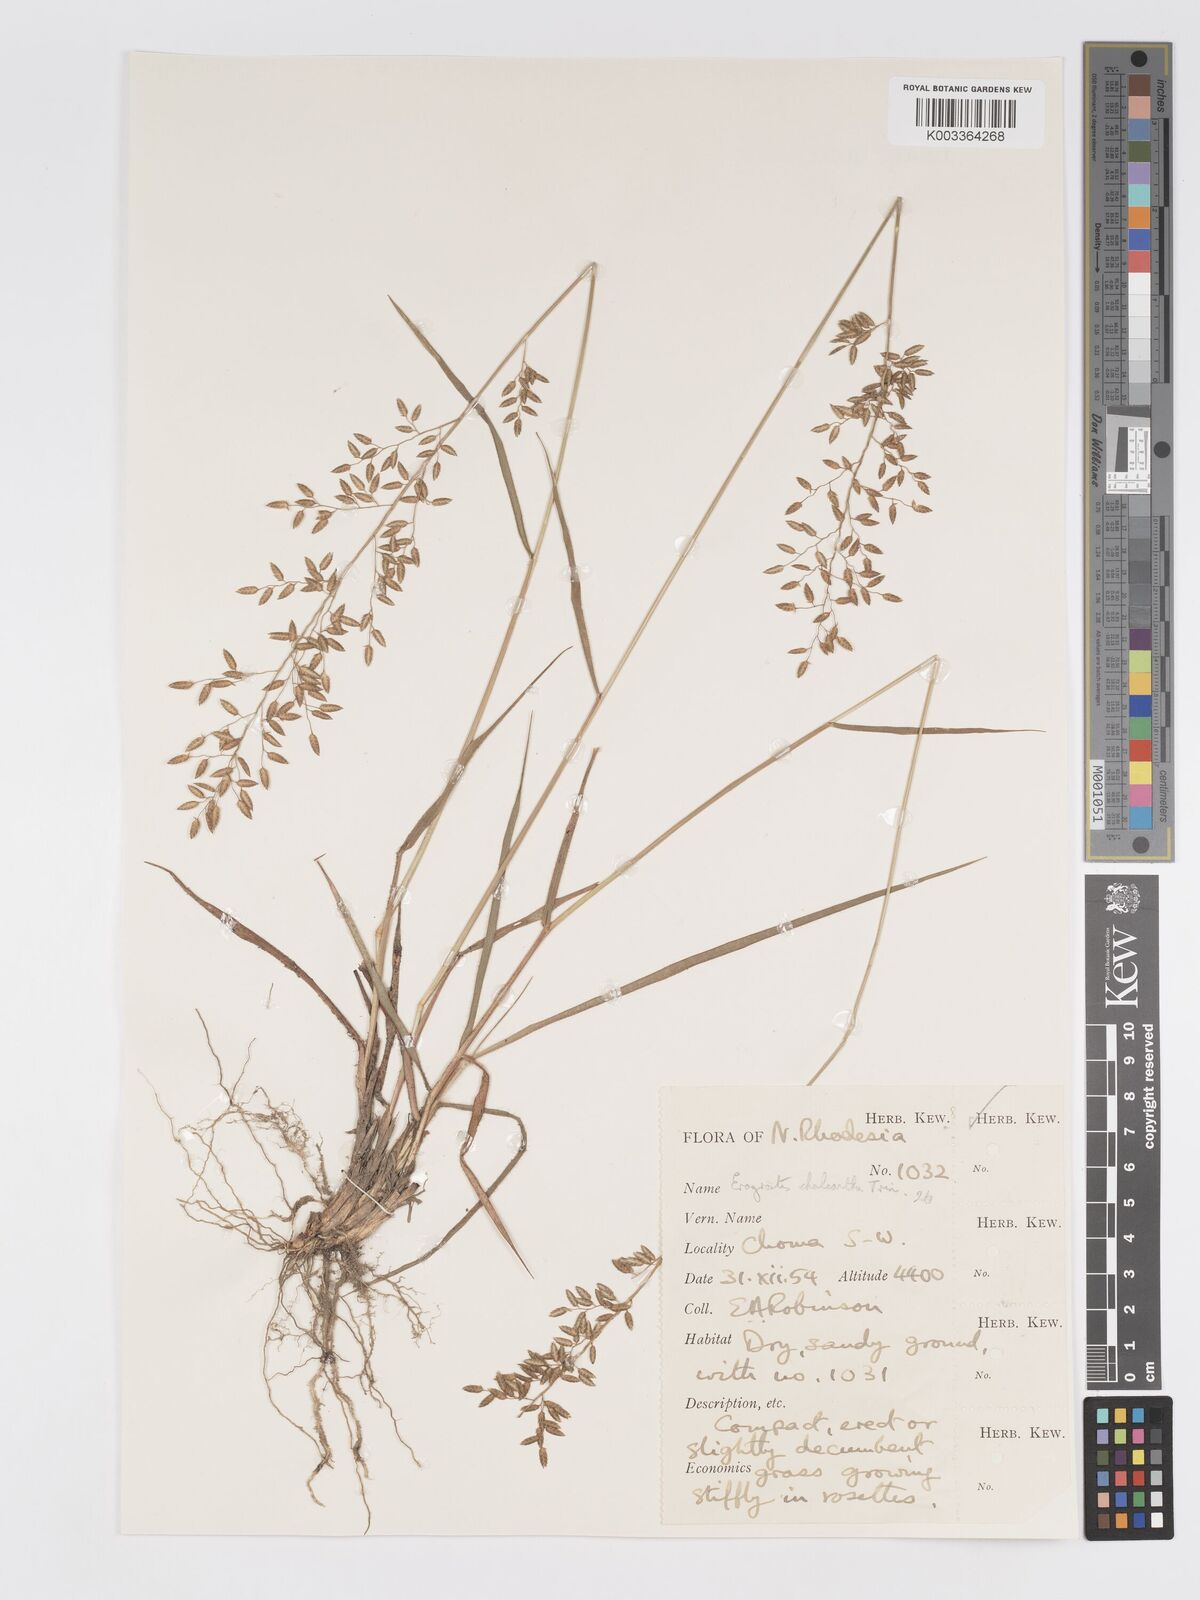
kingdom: Plantae
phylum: Tracheophyta
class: Liliopsida
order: Poales
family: Poaceae
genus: Eragrostis
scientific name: Eragrostis racemosa
